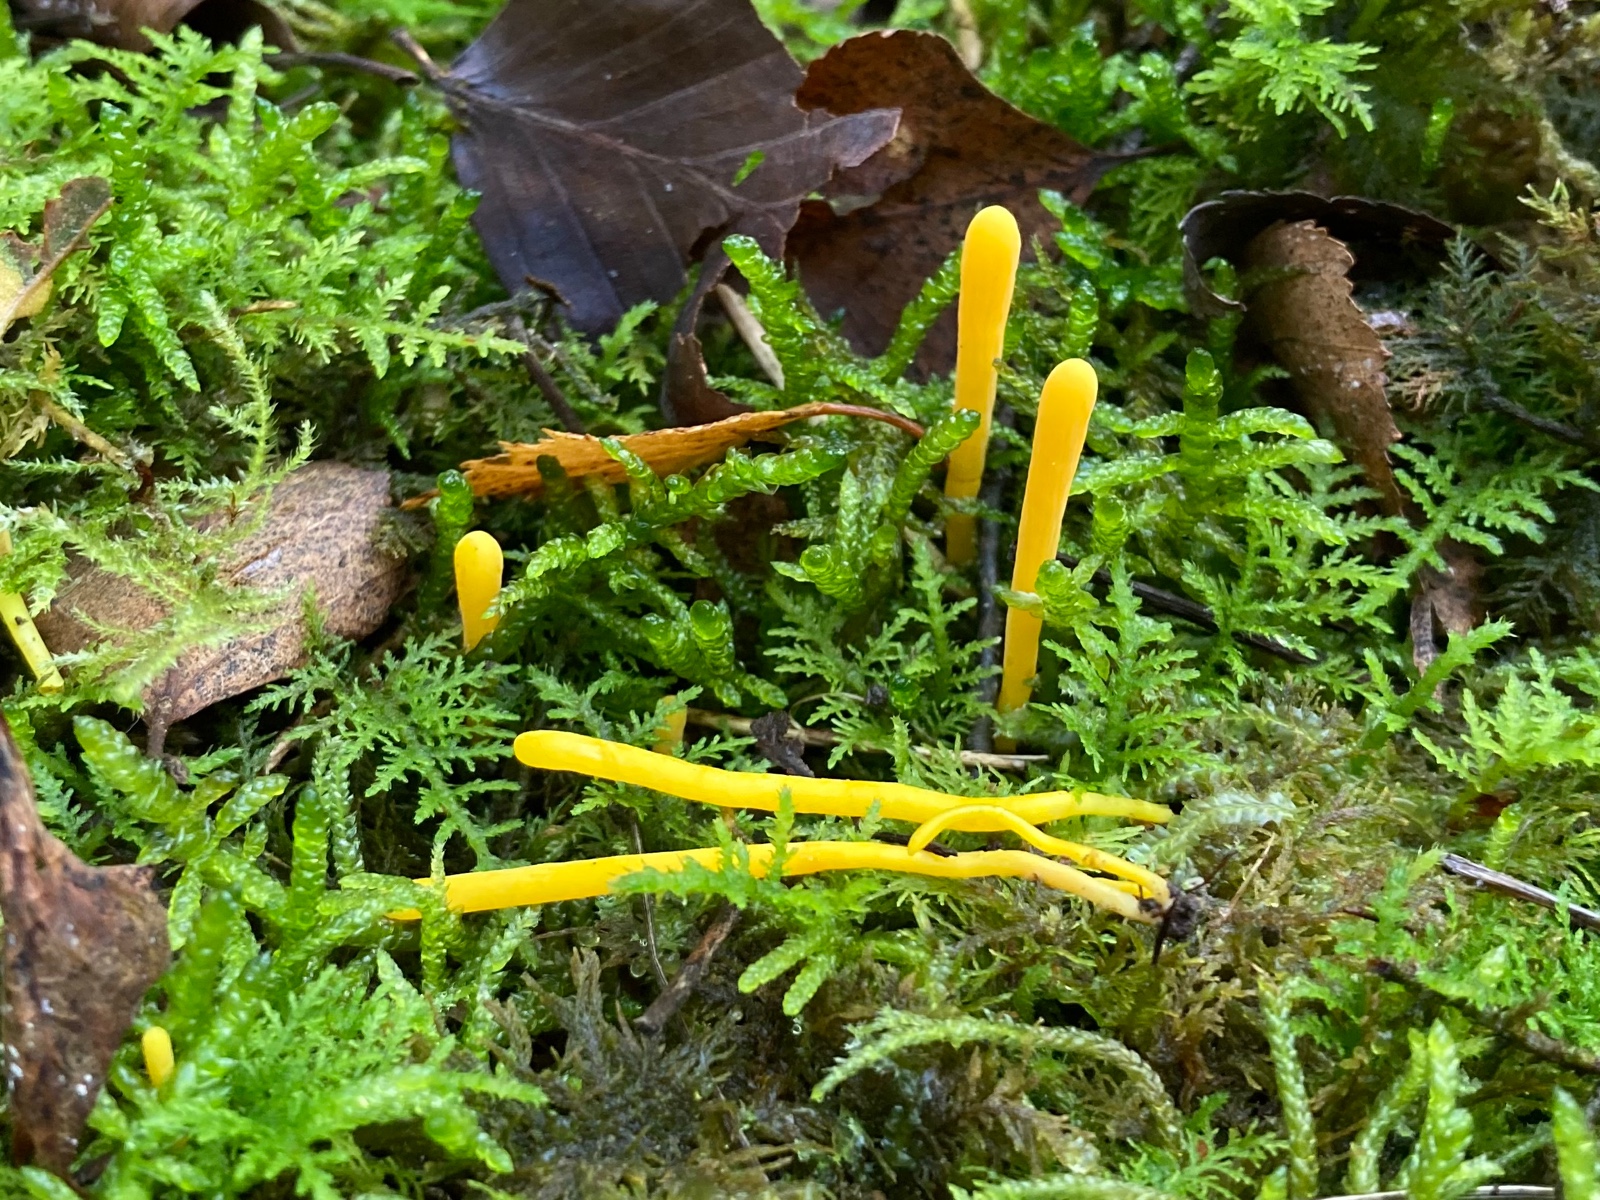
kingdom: Fungi
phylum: Basidiomycota
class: Agaricomycetes
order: Agaricales
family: Clavariaceae
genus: Clavulinopsis
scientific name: Clavulinopsis
